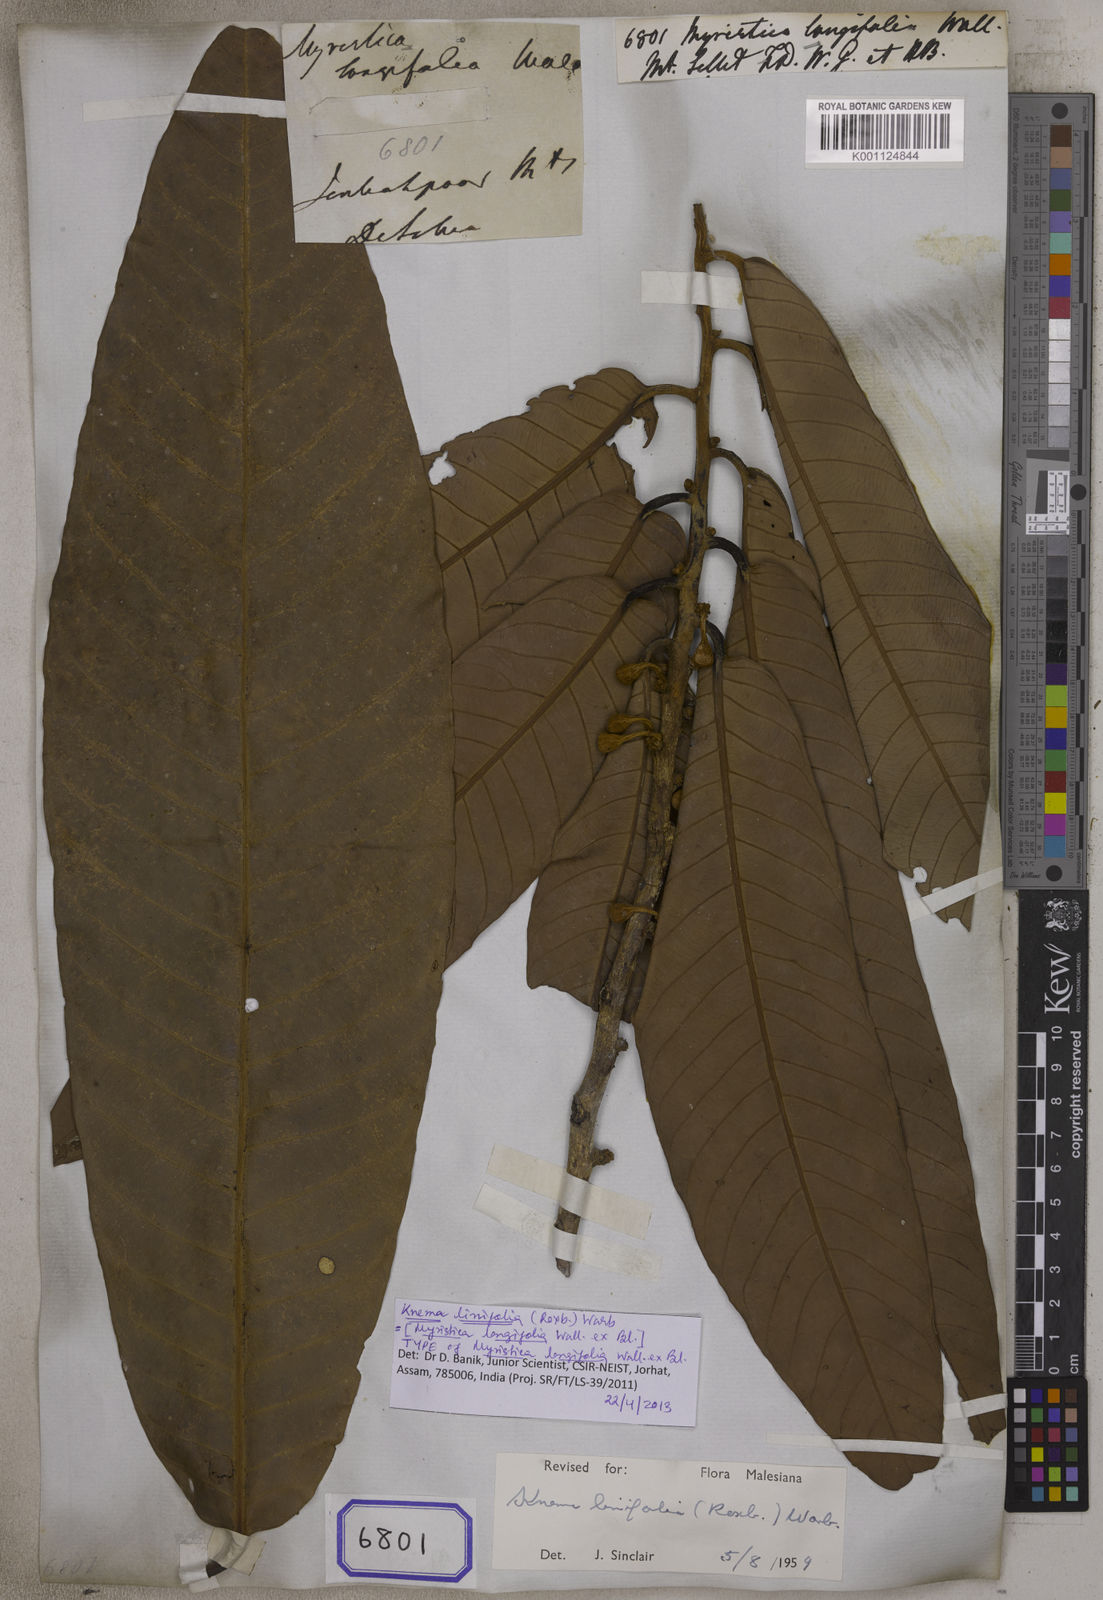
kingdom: Plantae
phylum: Tracheophyta
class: Magnoliopsida
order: Magnoliales
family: Myristicaceae
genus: Myristica
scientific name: Myristica
